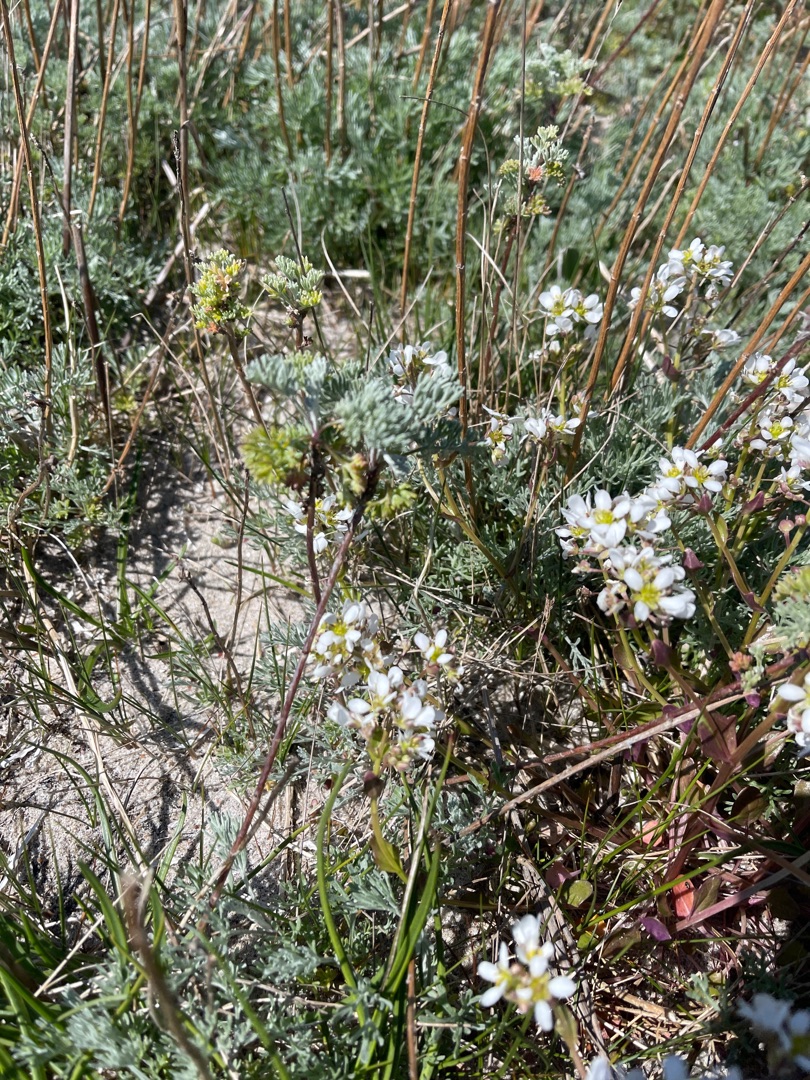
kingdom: Plantae
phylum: Tracheophyta
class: Magnoliopsida
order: Brassicales
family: Brassicaceae
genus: Cochlearia
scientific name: Cochlearia officinalis
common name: Læge-kokleare
